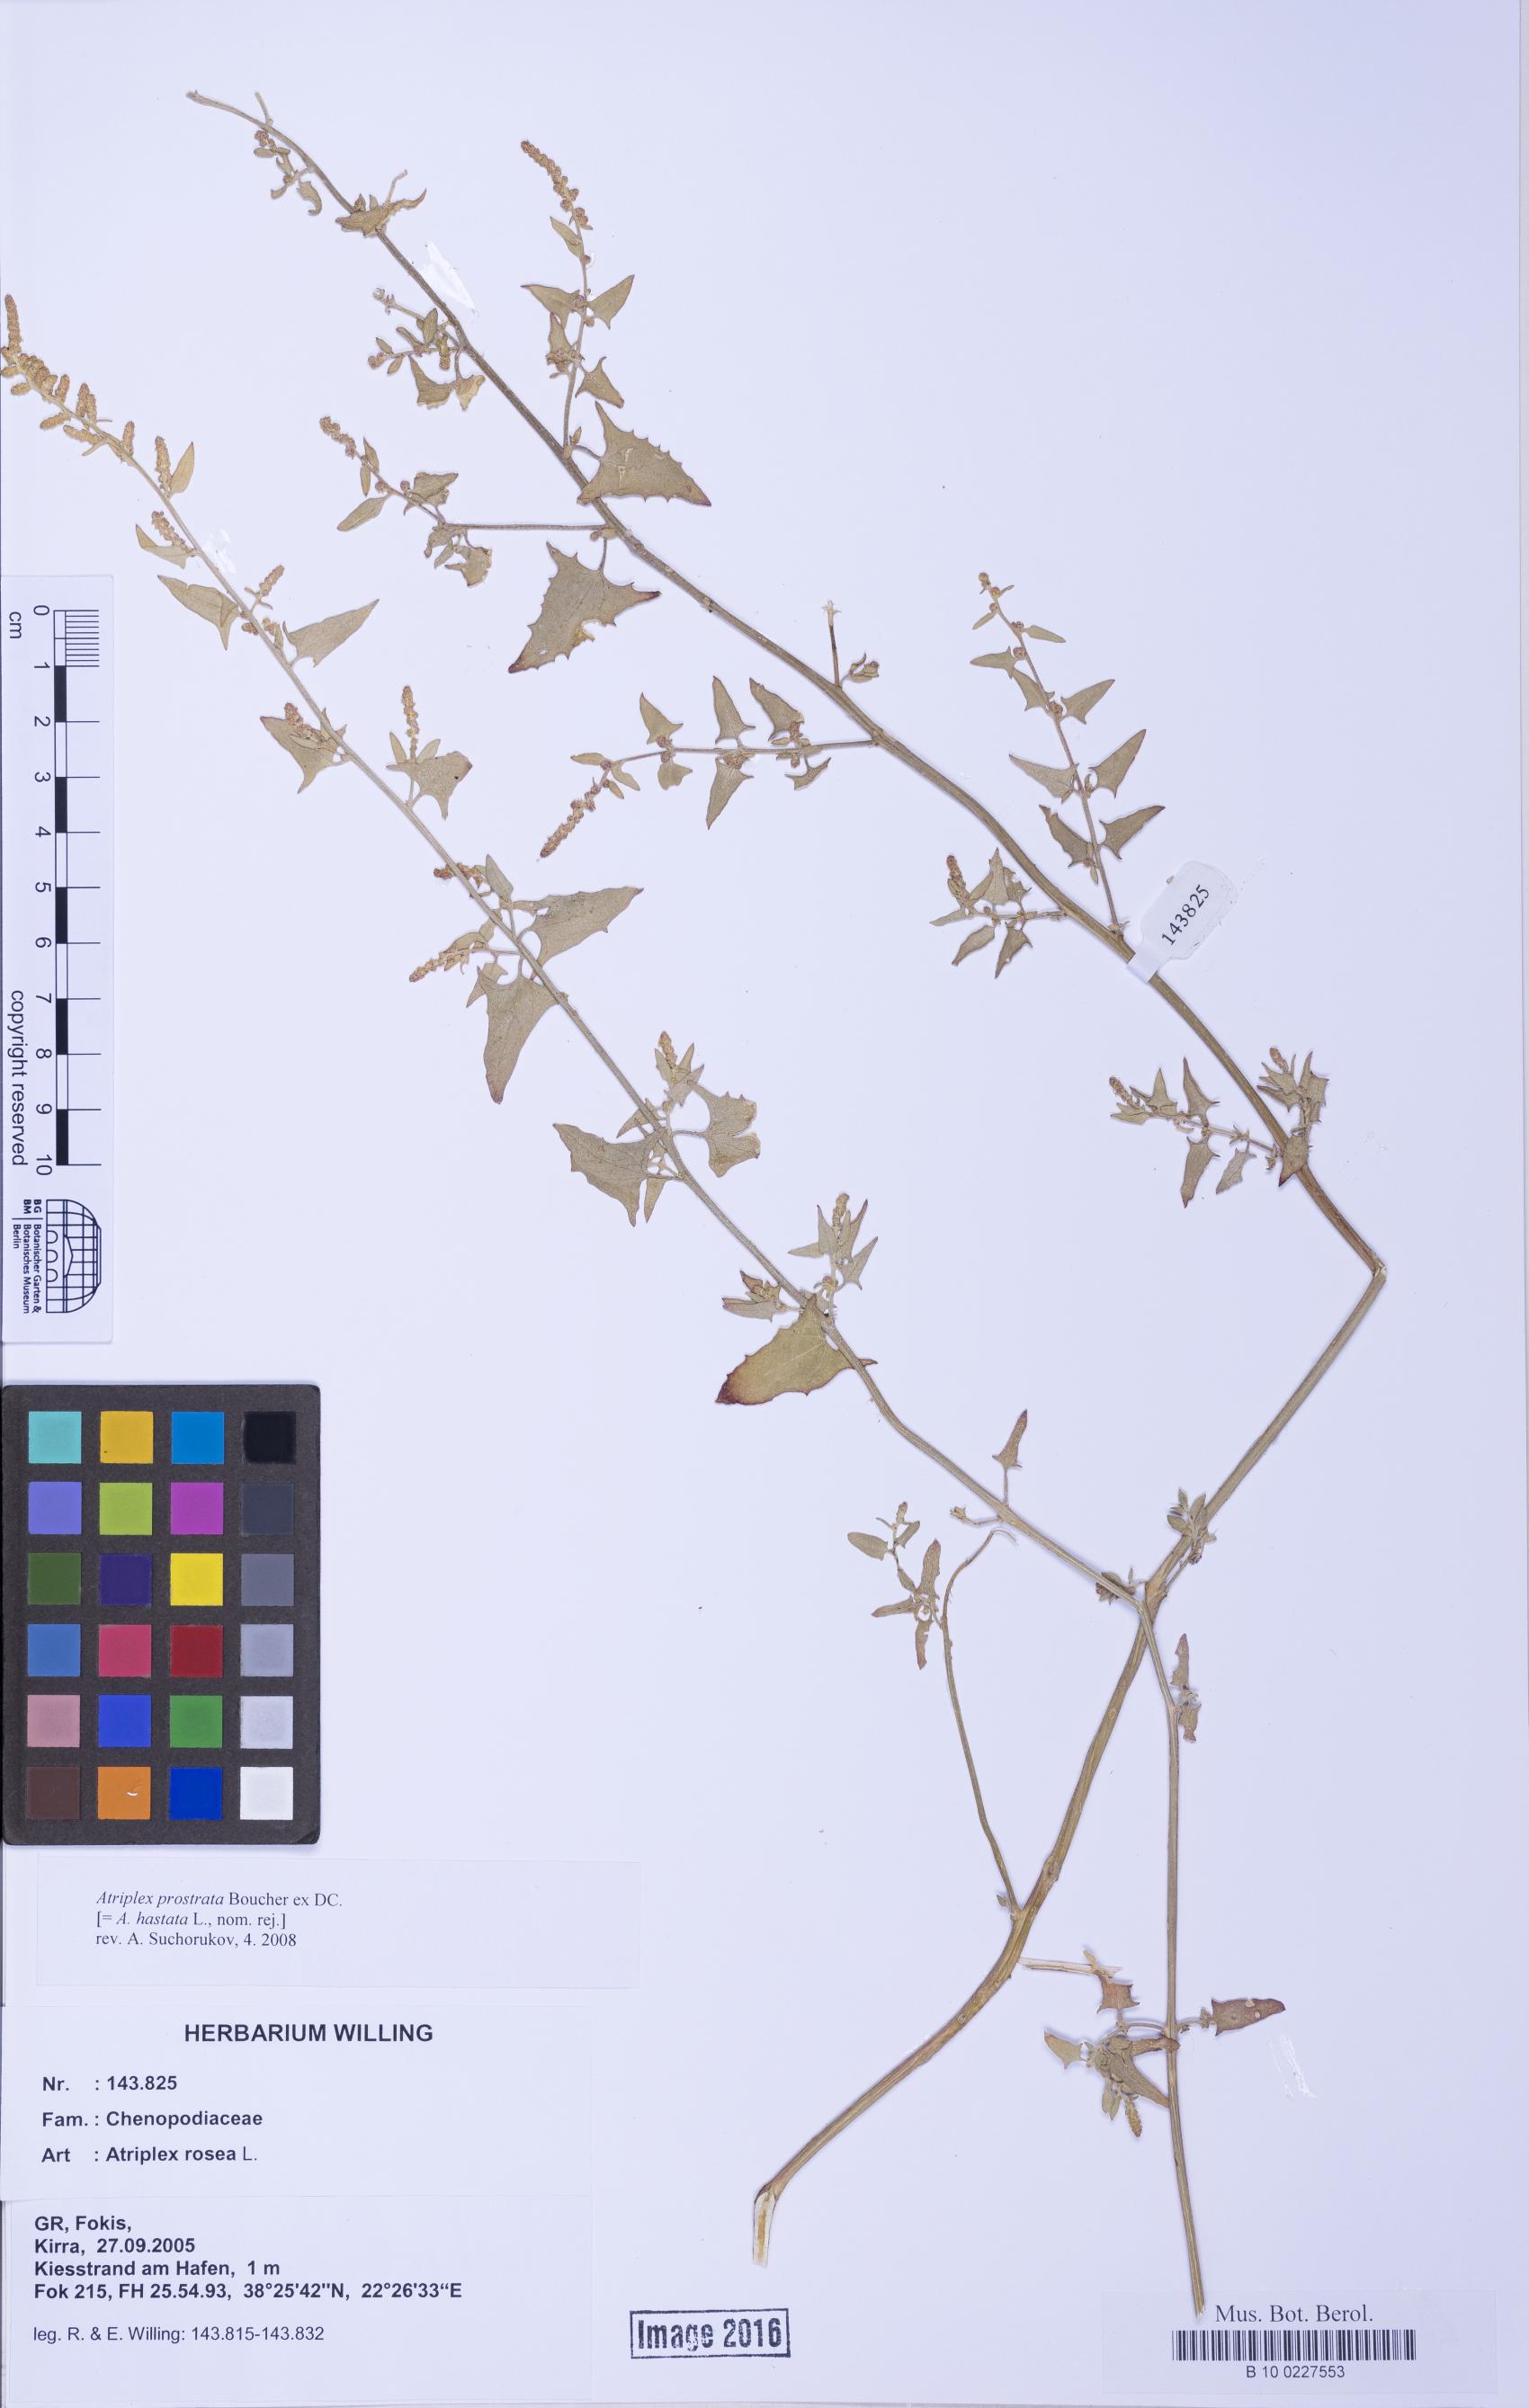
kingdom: Plantae
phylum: Tracheophyta
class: Magnoliopsida
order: Caryophyllales
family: Amaranthaceae
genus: Atriplex
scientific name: Atriplex prostrata
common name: Spear-leaved orache
